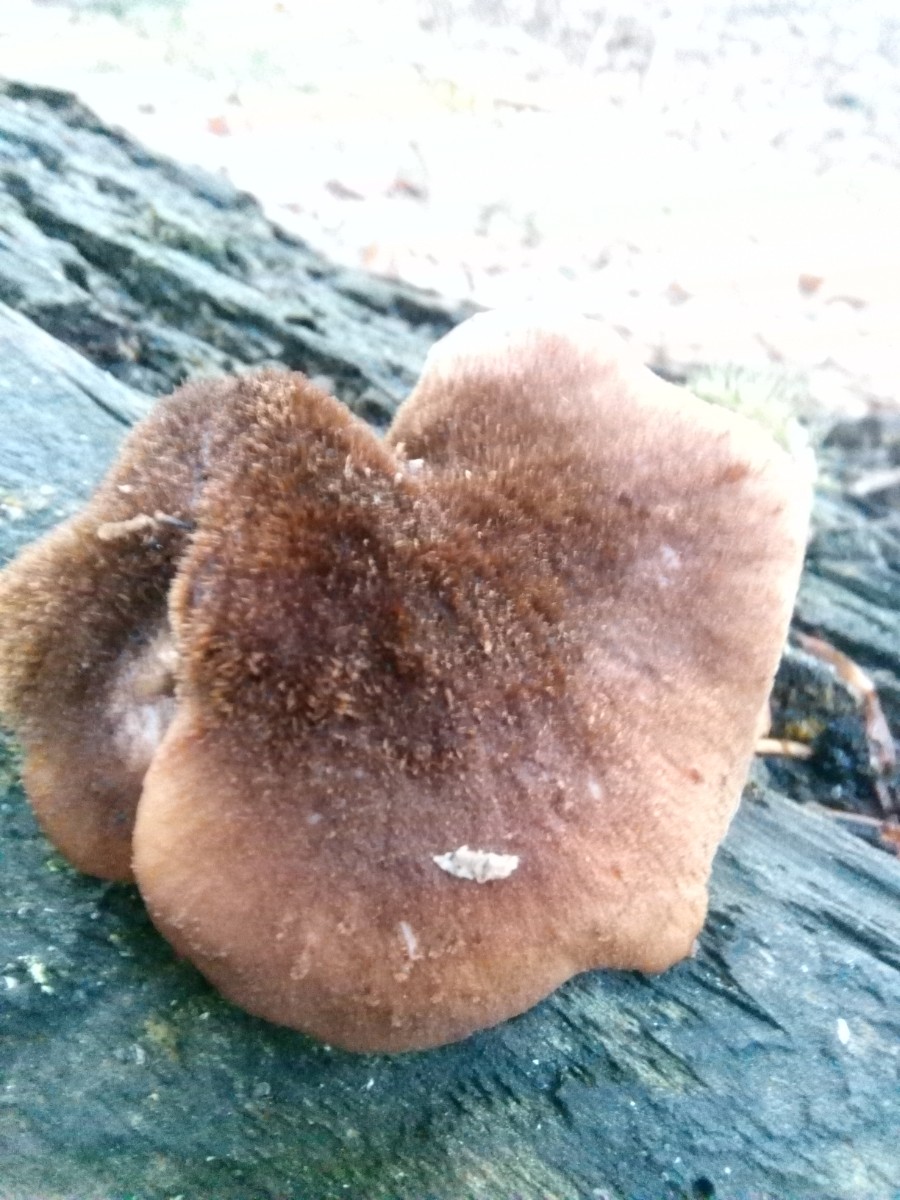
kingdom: Fungi
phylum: Basidiomycota
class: Agaricomycetes
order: Russulales
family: Auriscalpiaceae
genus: Lentinellus
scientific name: Lentinellus ursinus
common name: børstehåret savbladhat
